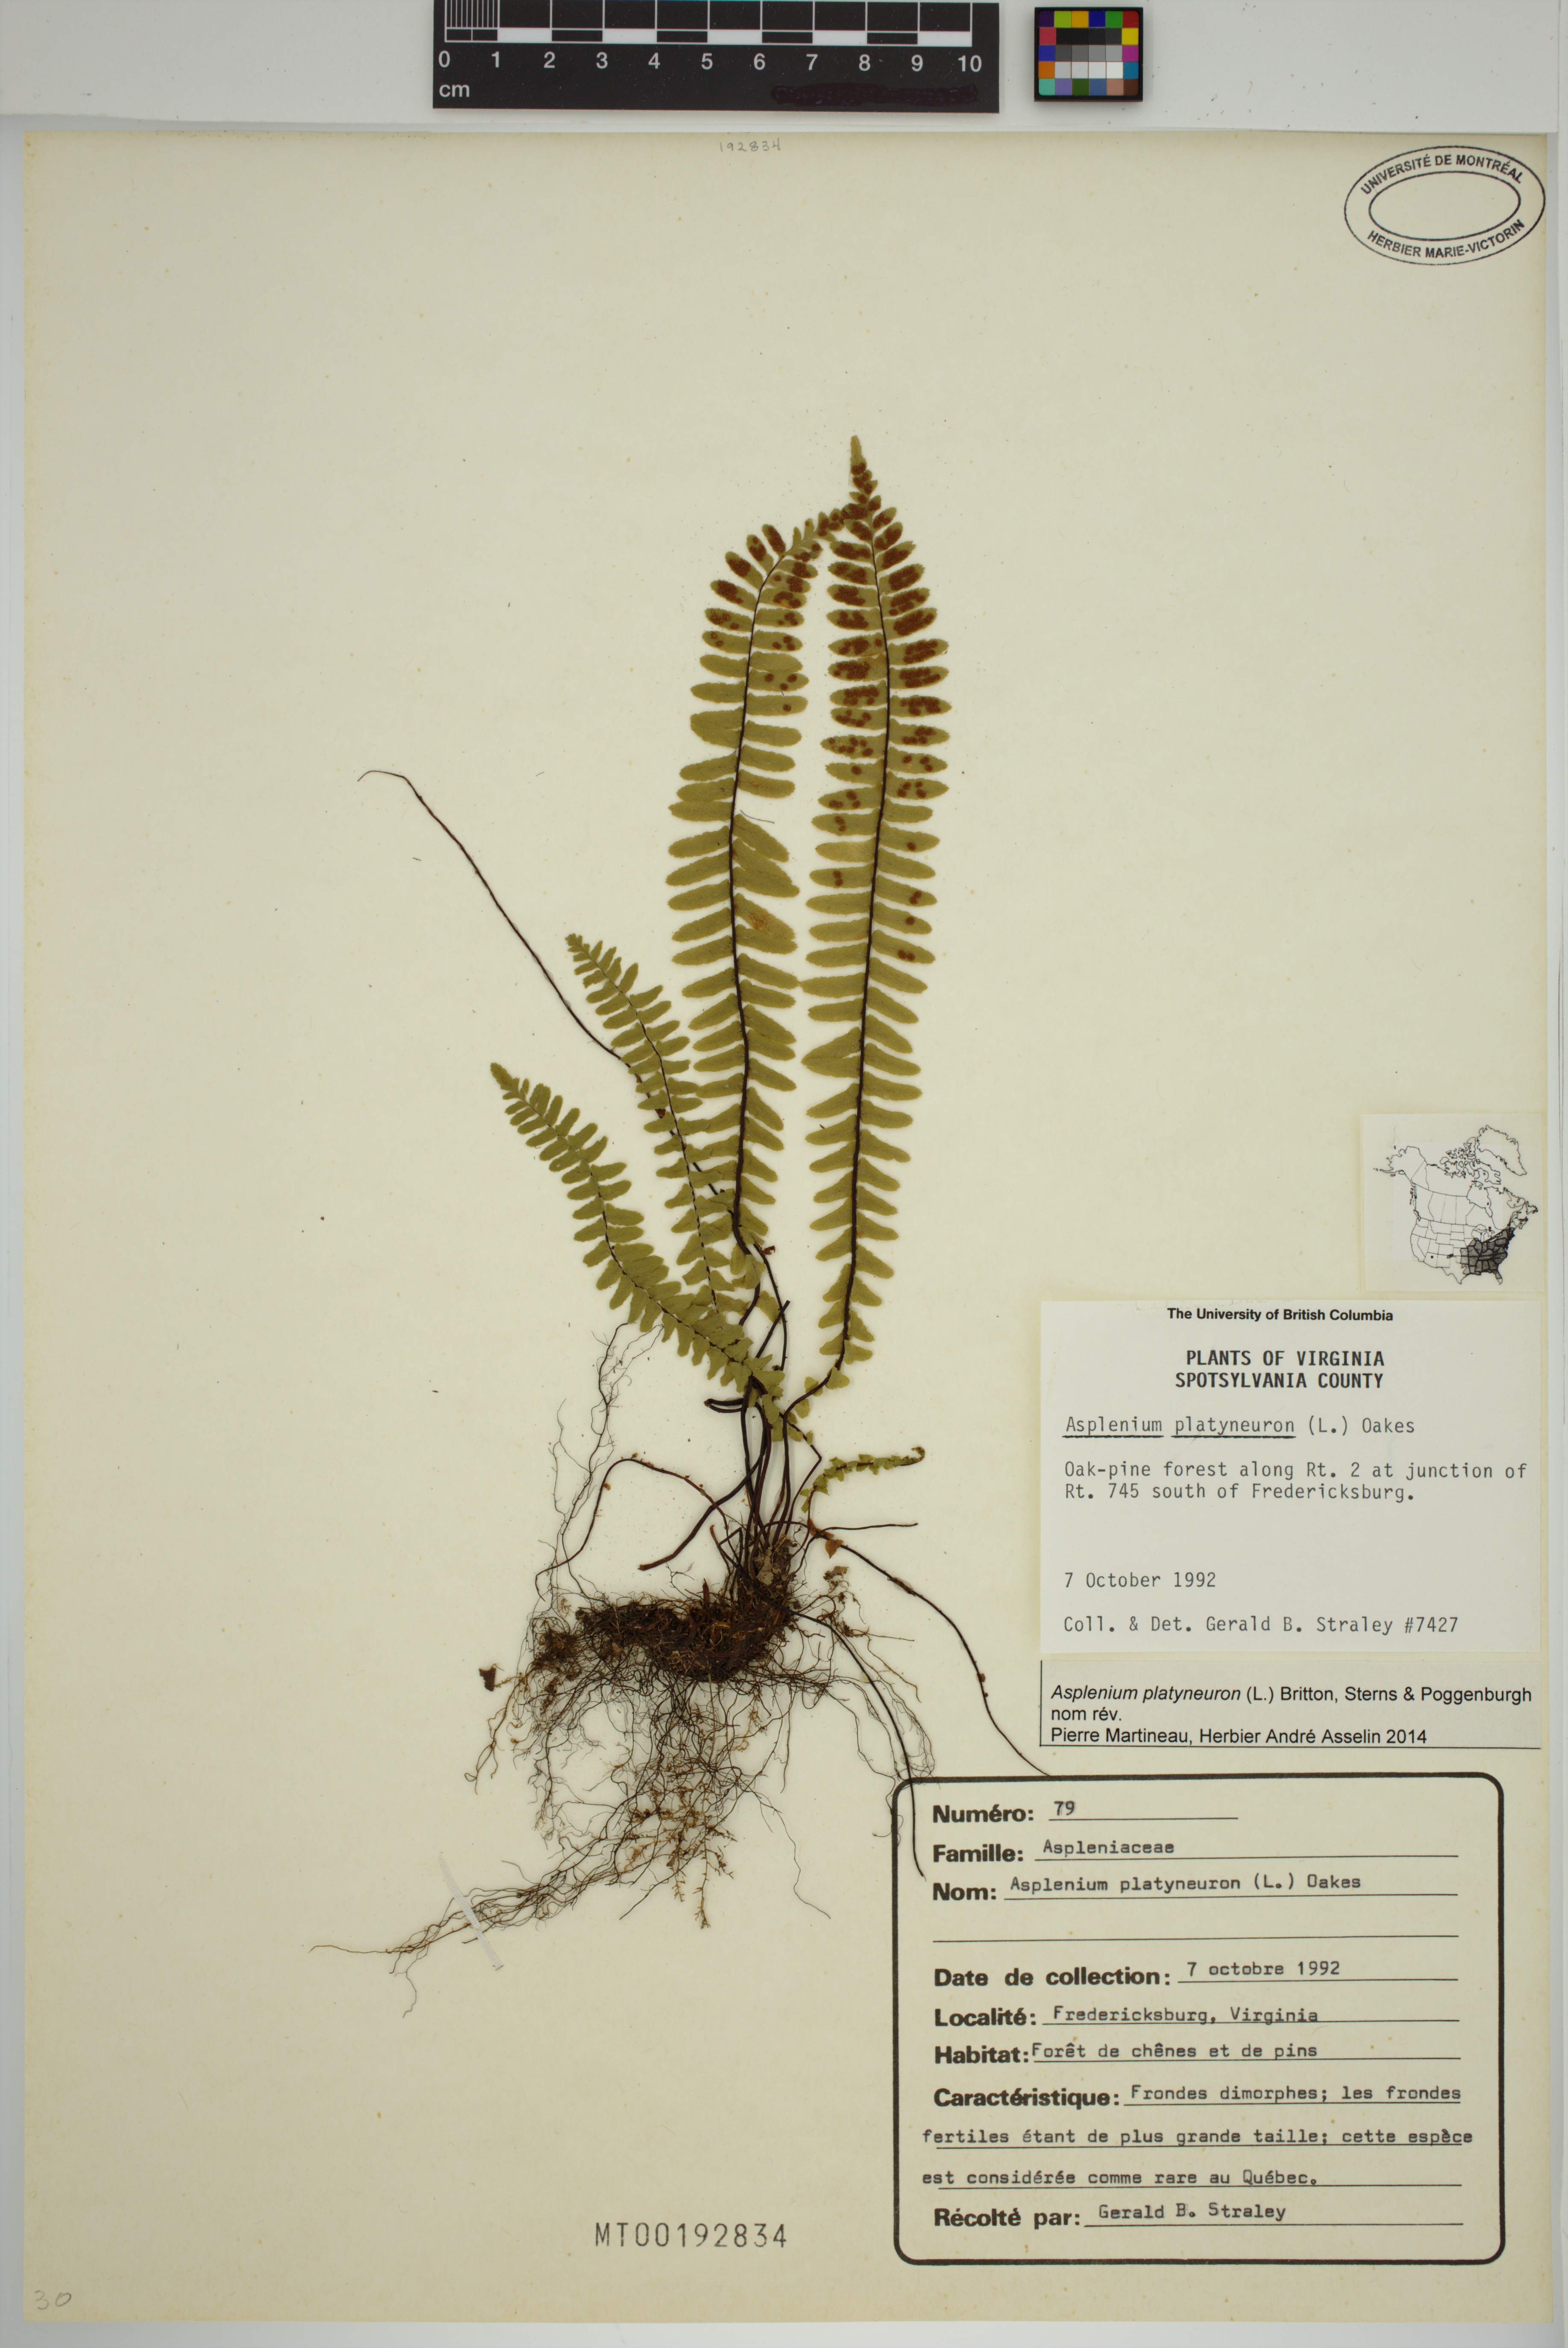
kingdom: Plantae
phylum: Tracheophyta
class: Polypodiopsida
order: Polypodiales
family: Aspleniaceae
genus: Asplenium
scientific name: Asplenium platyneuron
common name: Ebony spleenwort
